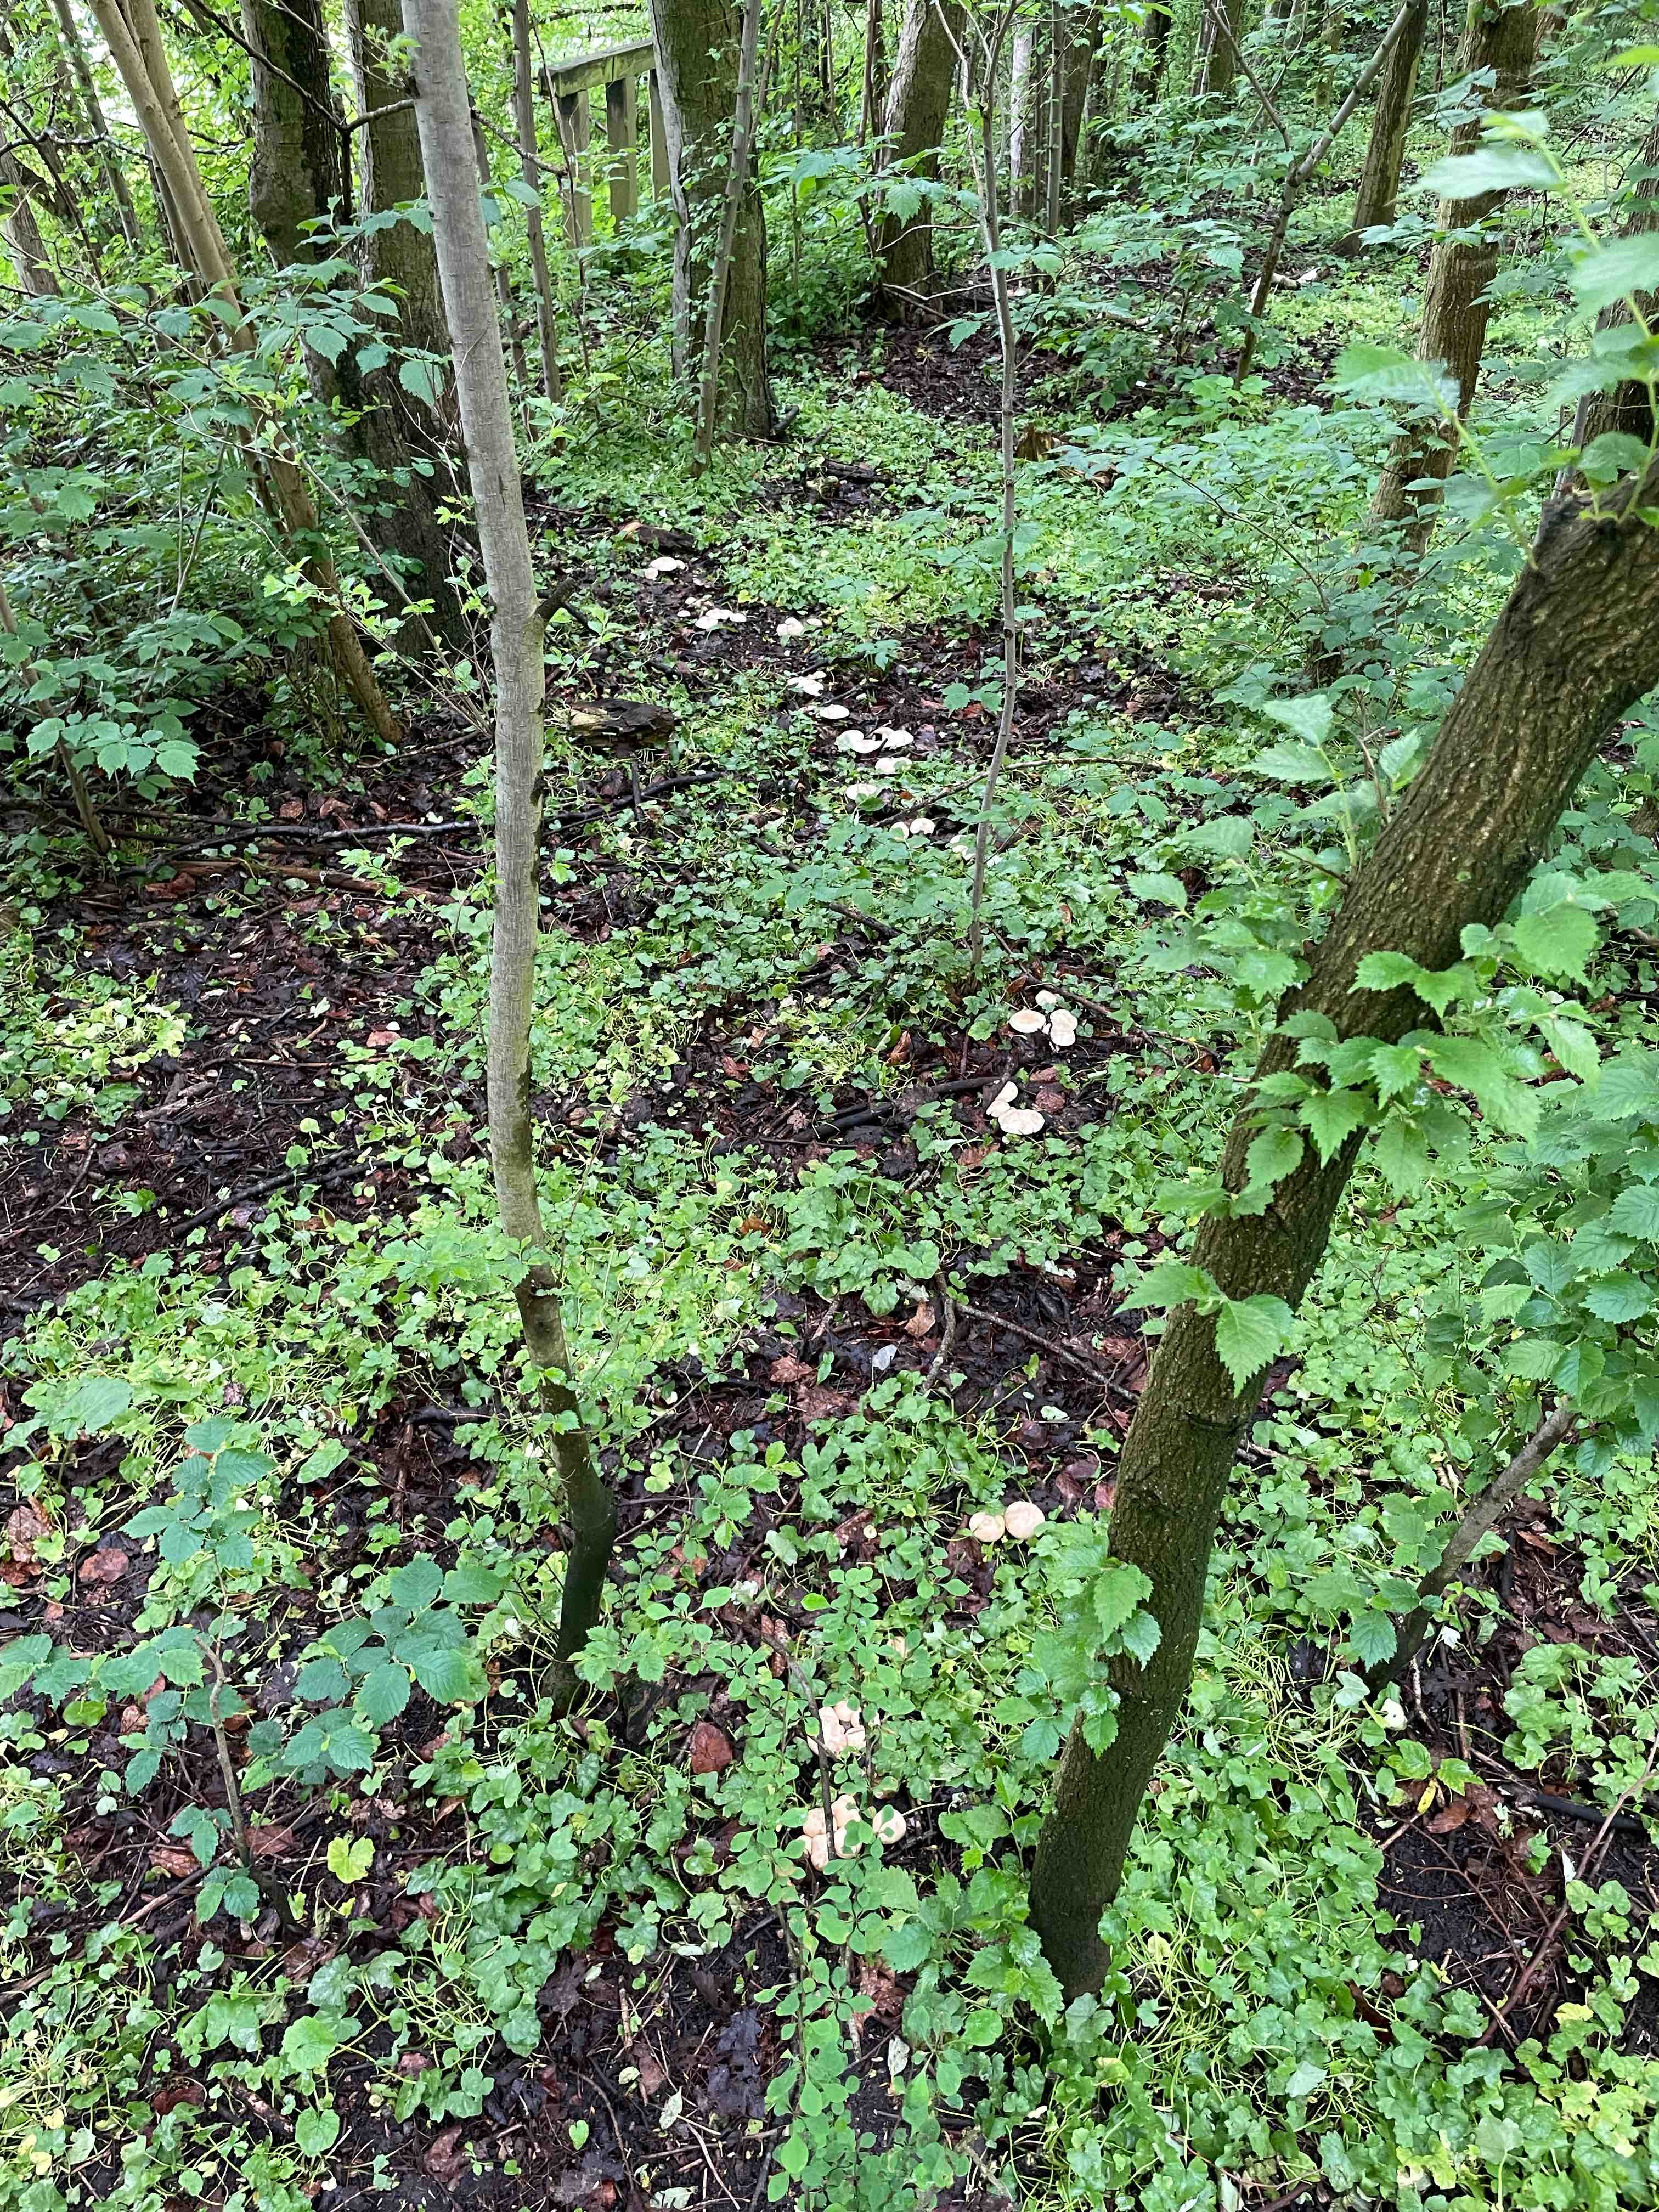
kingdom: Fungi
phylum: Basidiomycota
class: Agaricomycetes
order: Agaricales
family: Lyophyllaceae
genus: Calocybe
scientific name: Calocybe gambosa
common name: vårmusseron
